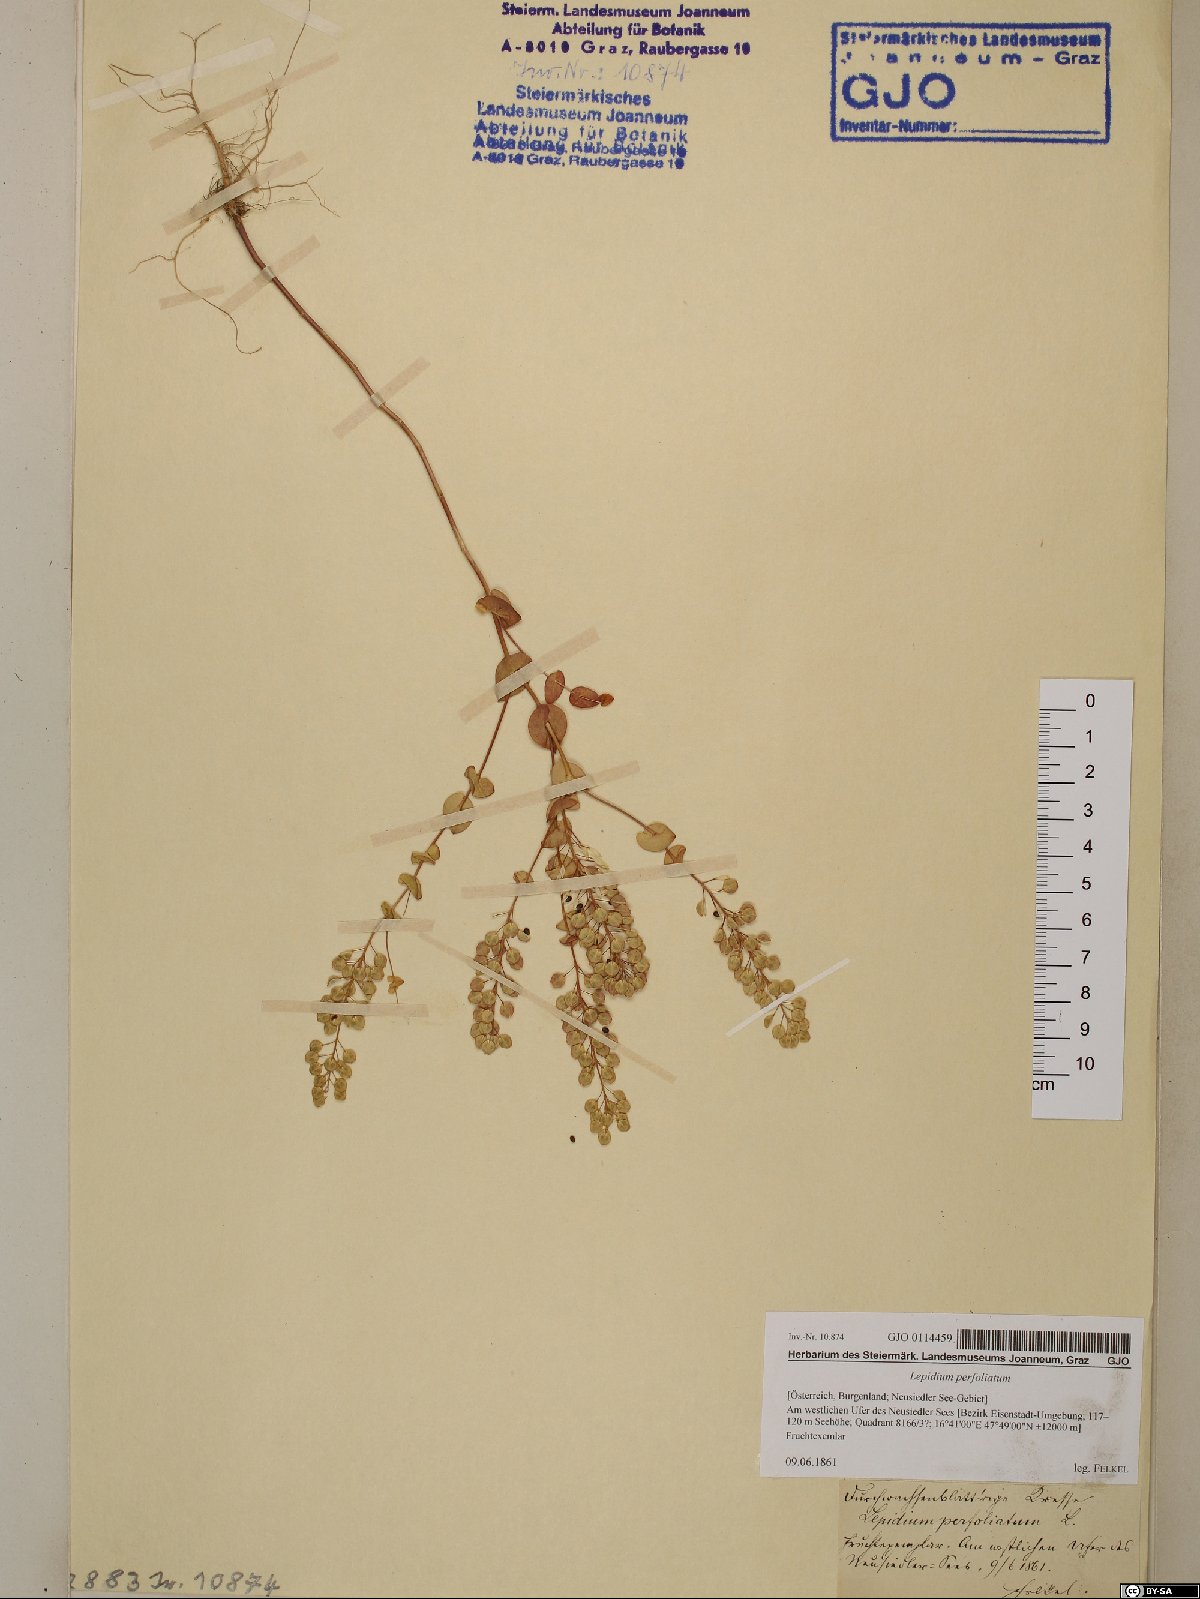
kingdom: Plantae
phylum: Tracheophyta
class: Magnoliopsida
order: Brassicales
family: Brassicaceae
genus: Lepidium
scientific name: Lepidium perfoliatum
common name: Perfoliate pepperwort
